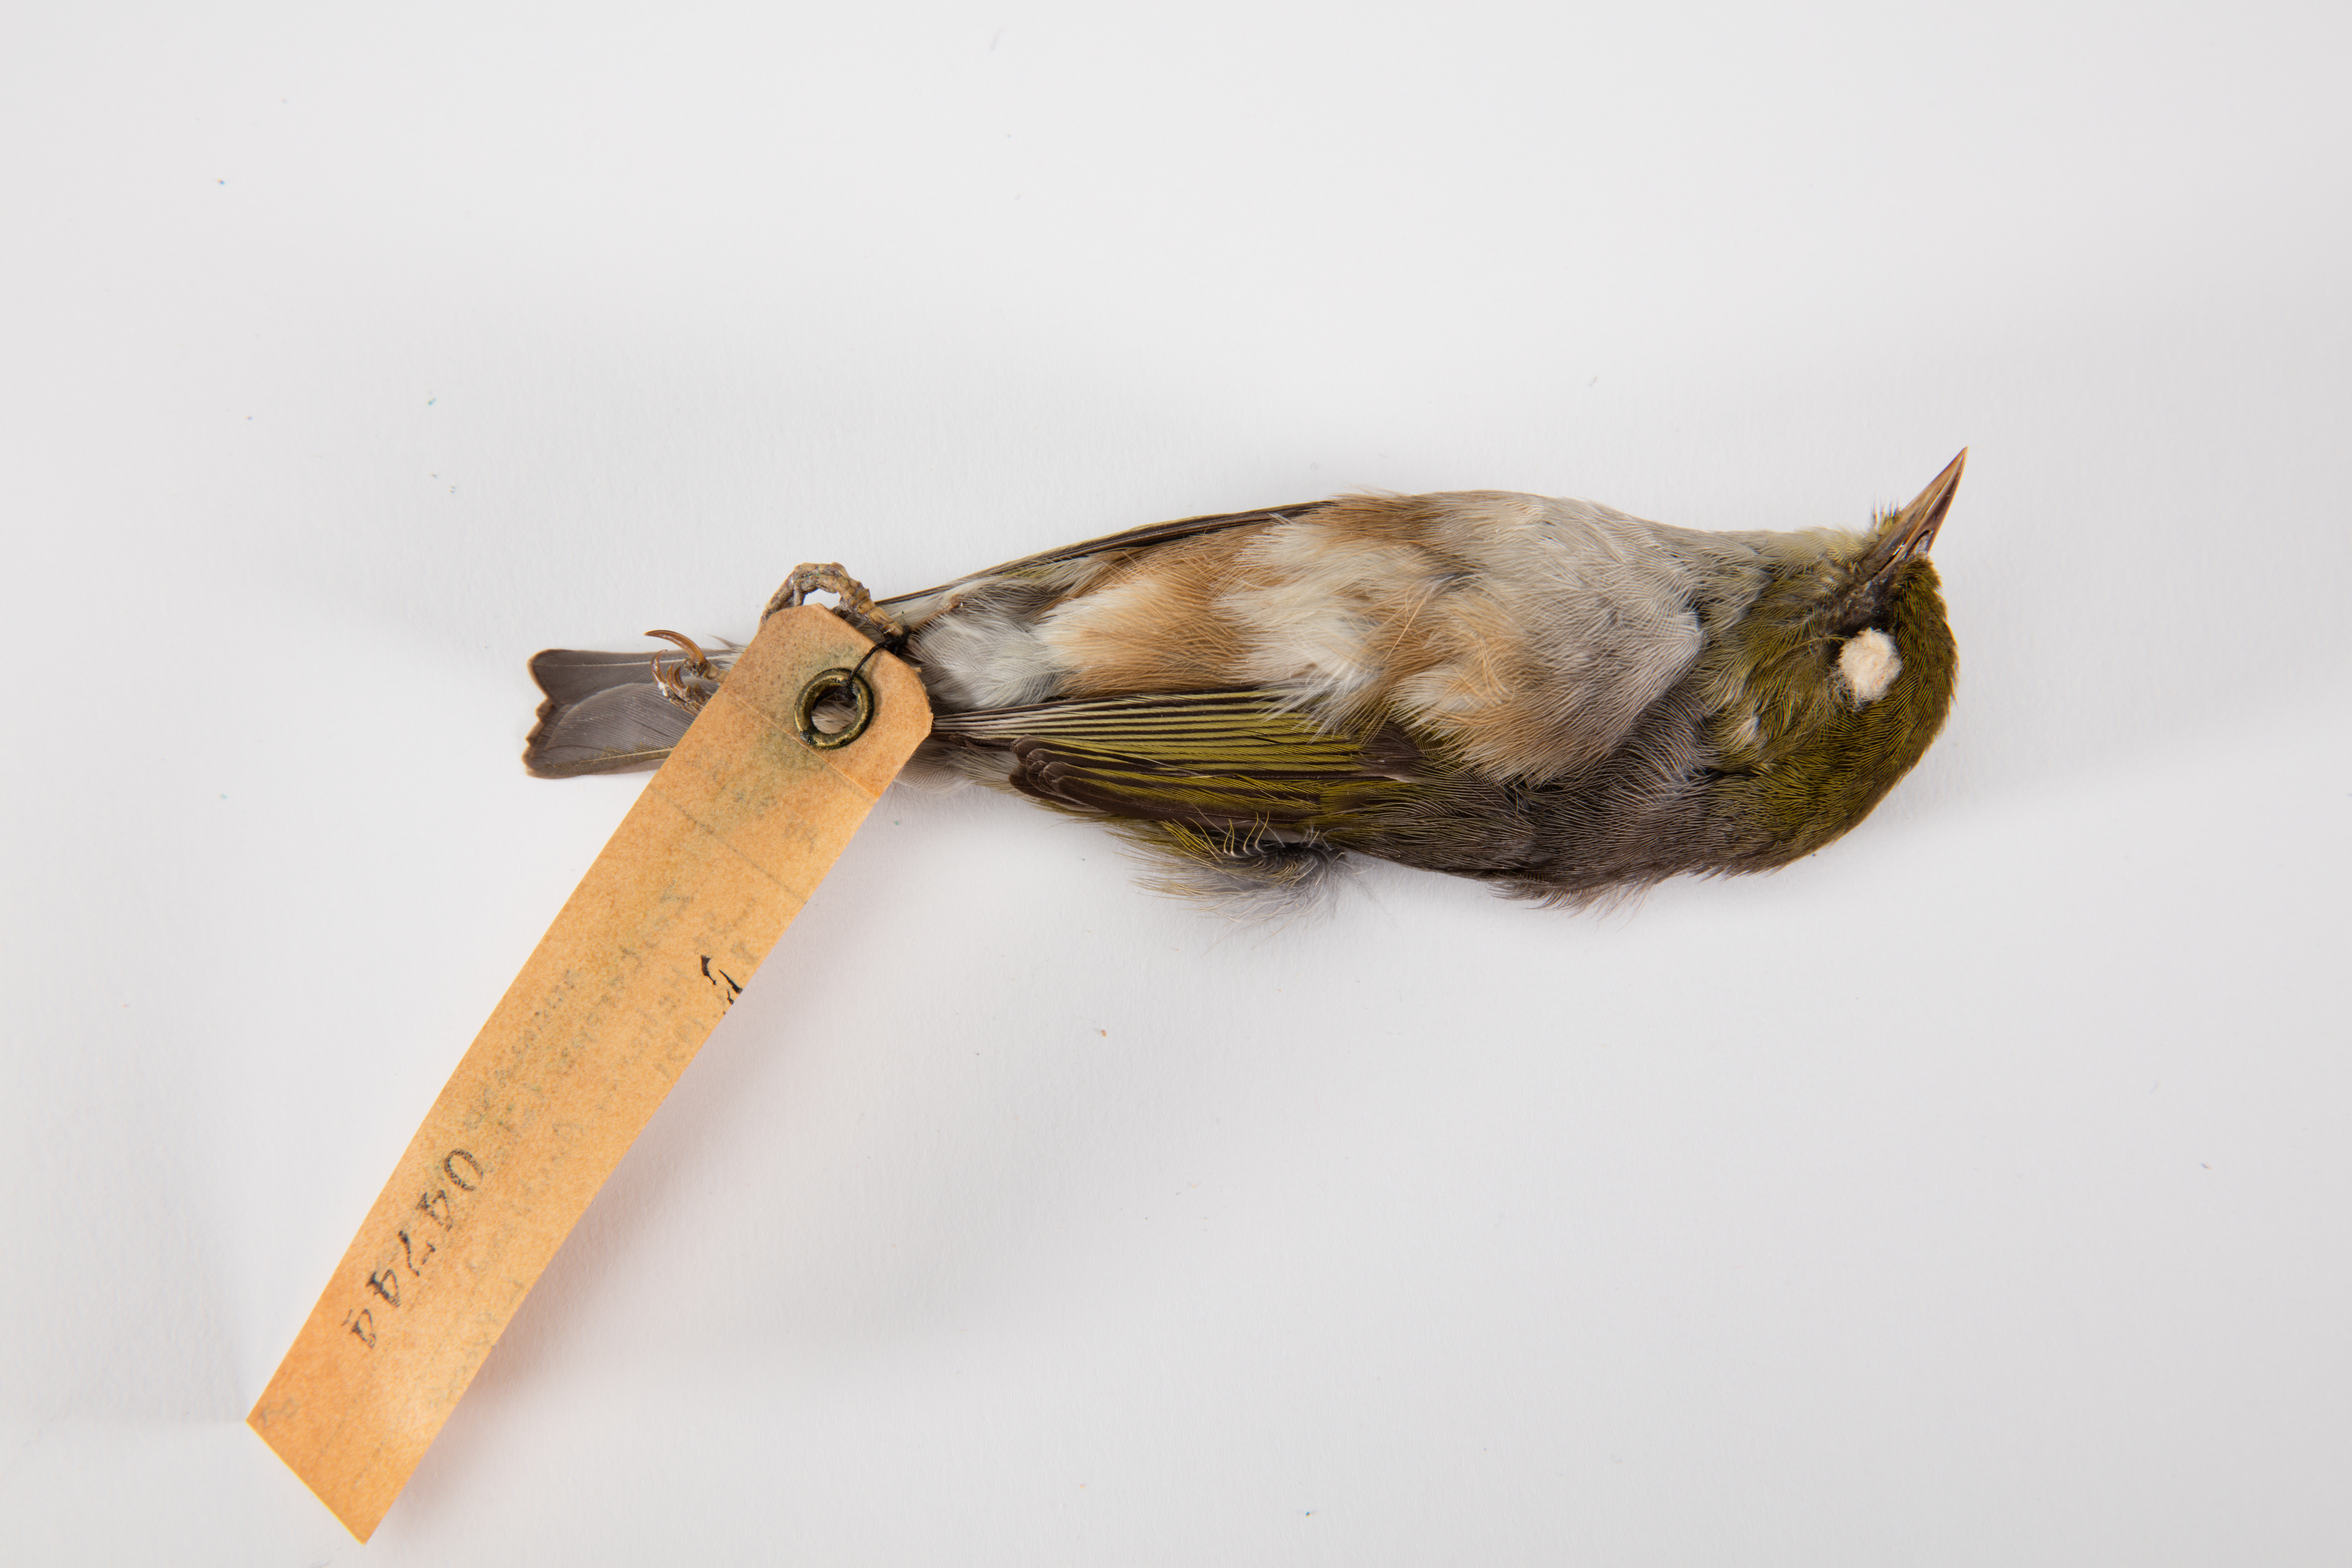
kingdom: Animalia
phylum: Chordata
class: Aves
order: Passeriformes
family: Zosteropidae
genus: Zosterops
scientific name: Zosterops lateralis
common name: Silvereye
